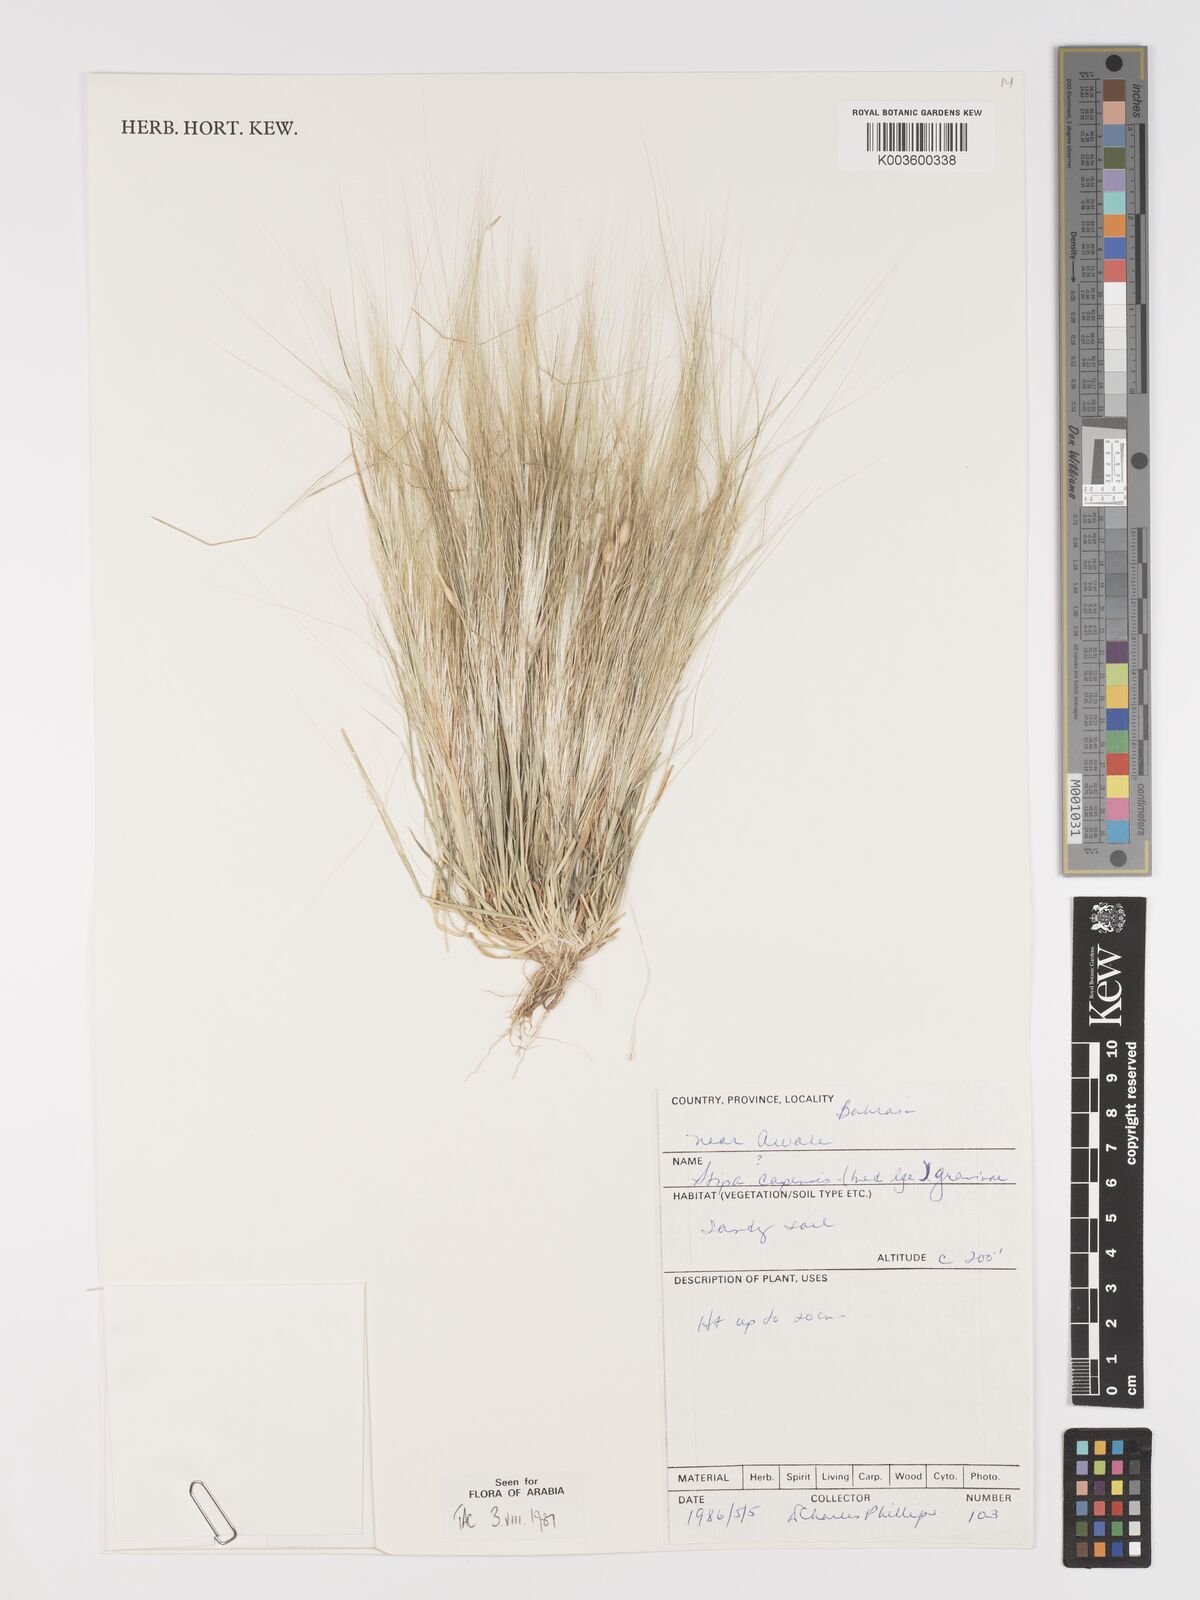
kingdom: Plantae
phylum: Tracheophyta
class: Liliopsida
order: Poales
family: Poaceae
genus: Stipellula
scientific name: Stipellula capensis
